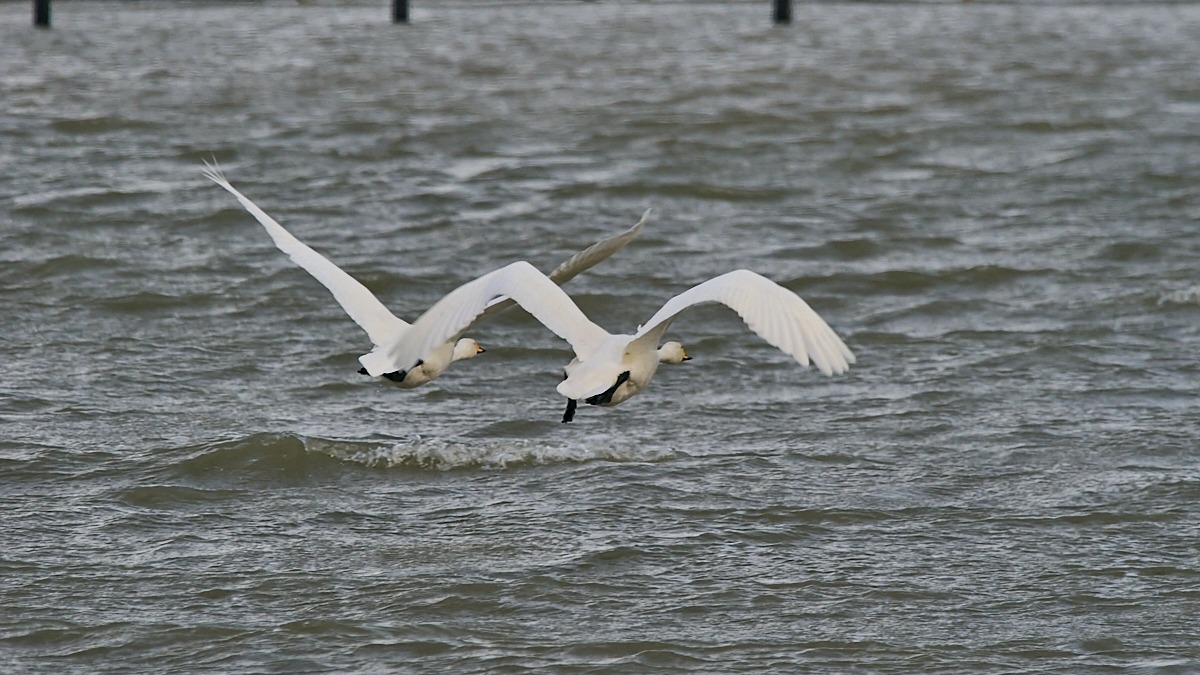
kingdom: Animalia
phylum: Chordata
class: Aves
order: Anseriformes
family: Anatidae
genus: Cygnus
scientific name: Cygnus cygnus
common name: Sangsvane
